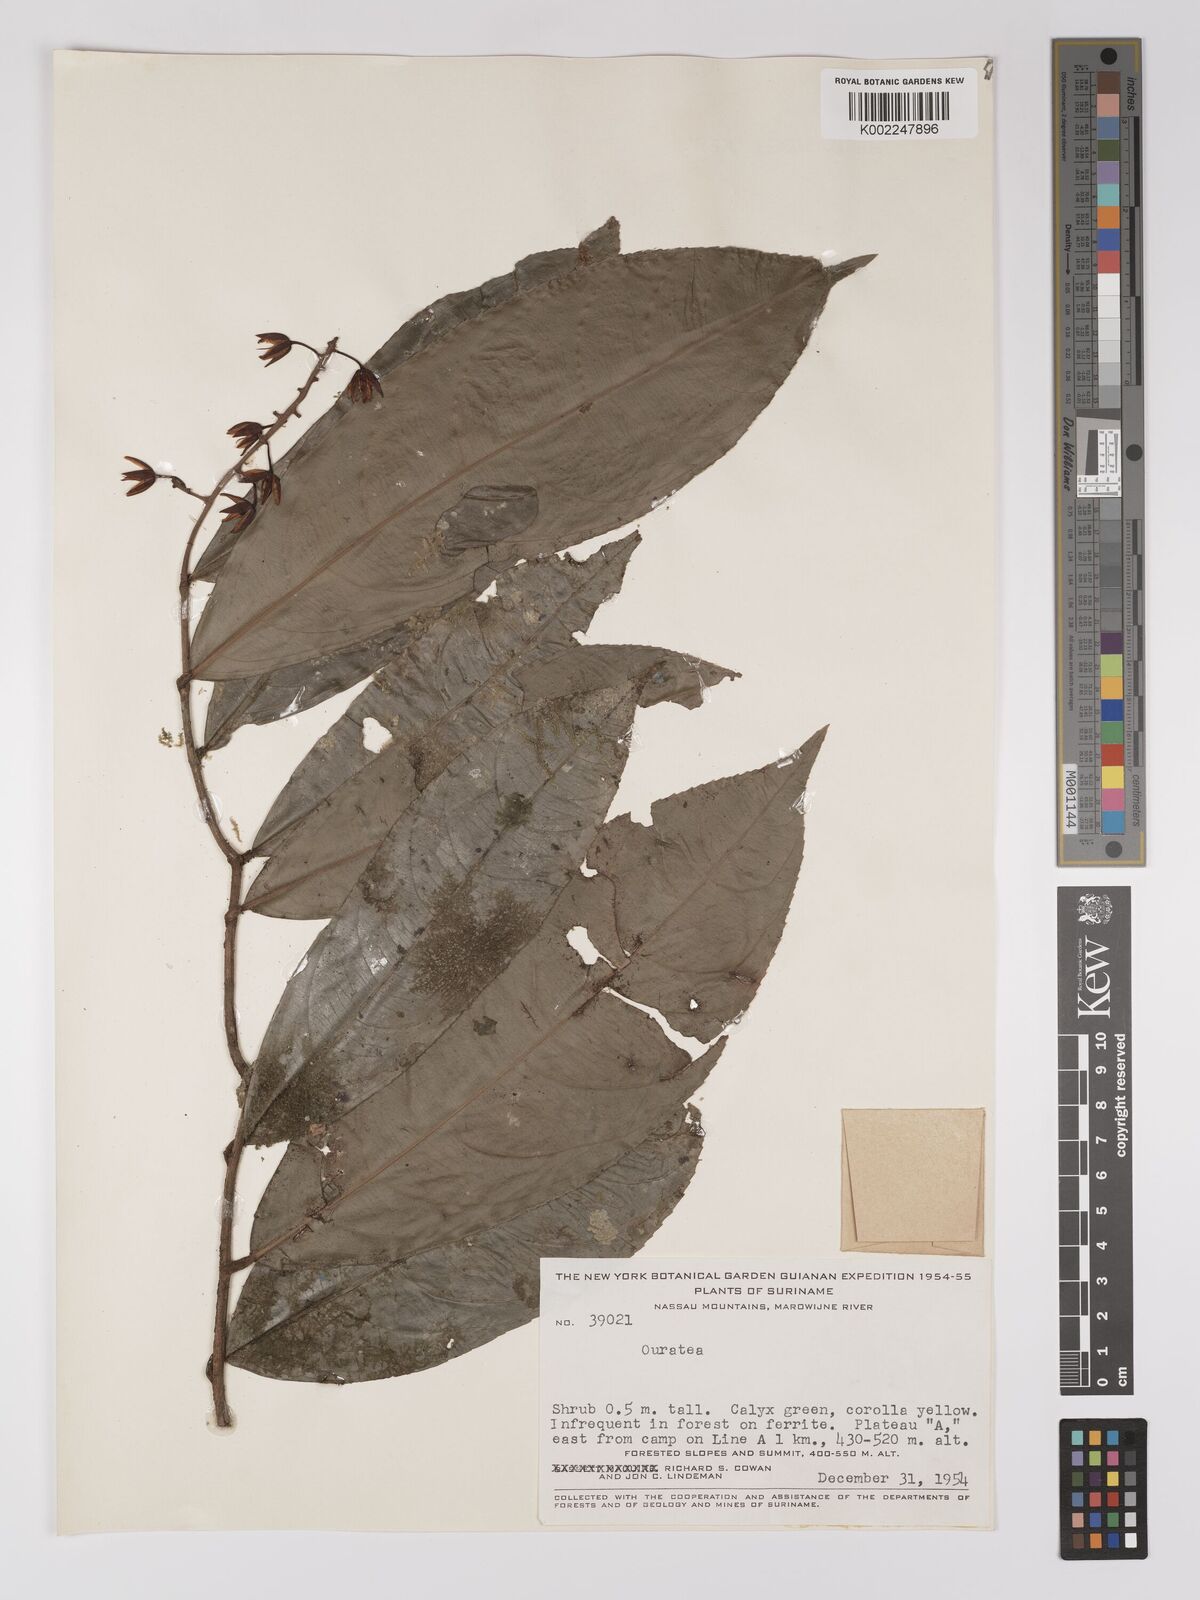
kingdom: Plantae
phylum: Tracheophyta
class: Magnoliopsida
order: Malpighiales
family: Ochnaceae
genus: Ouratea
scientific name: Ouratea
